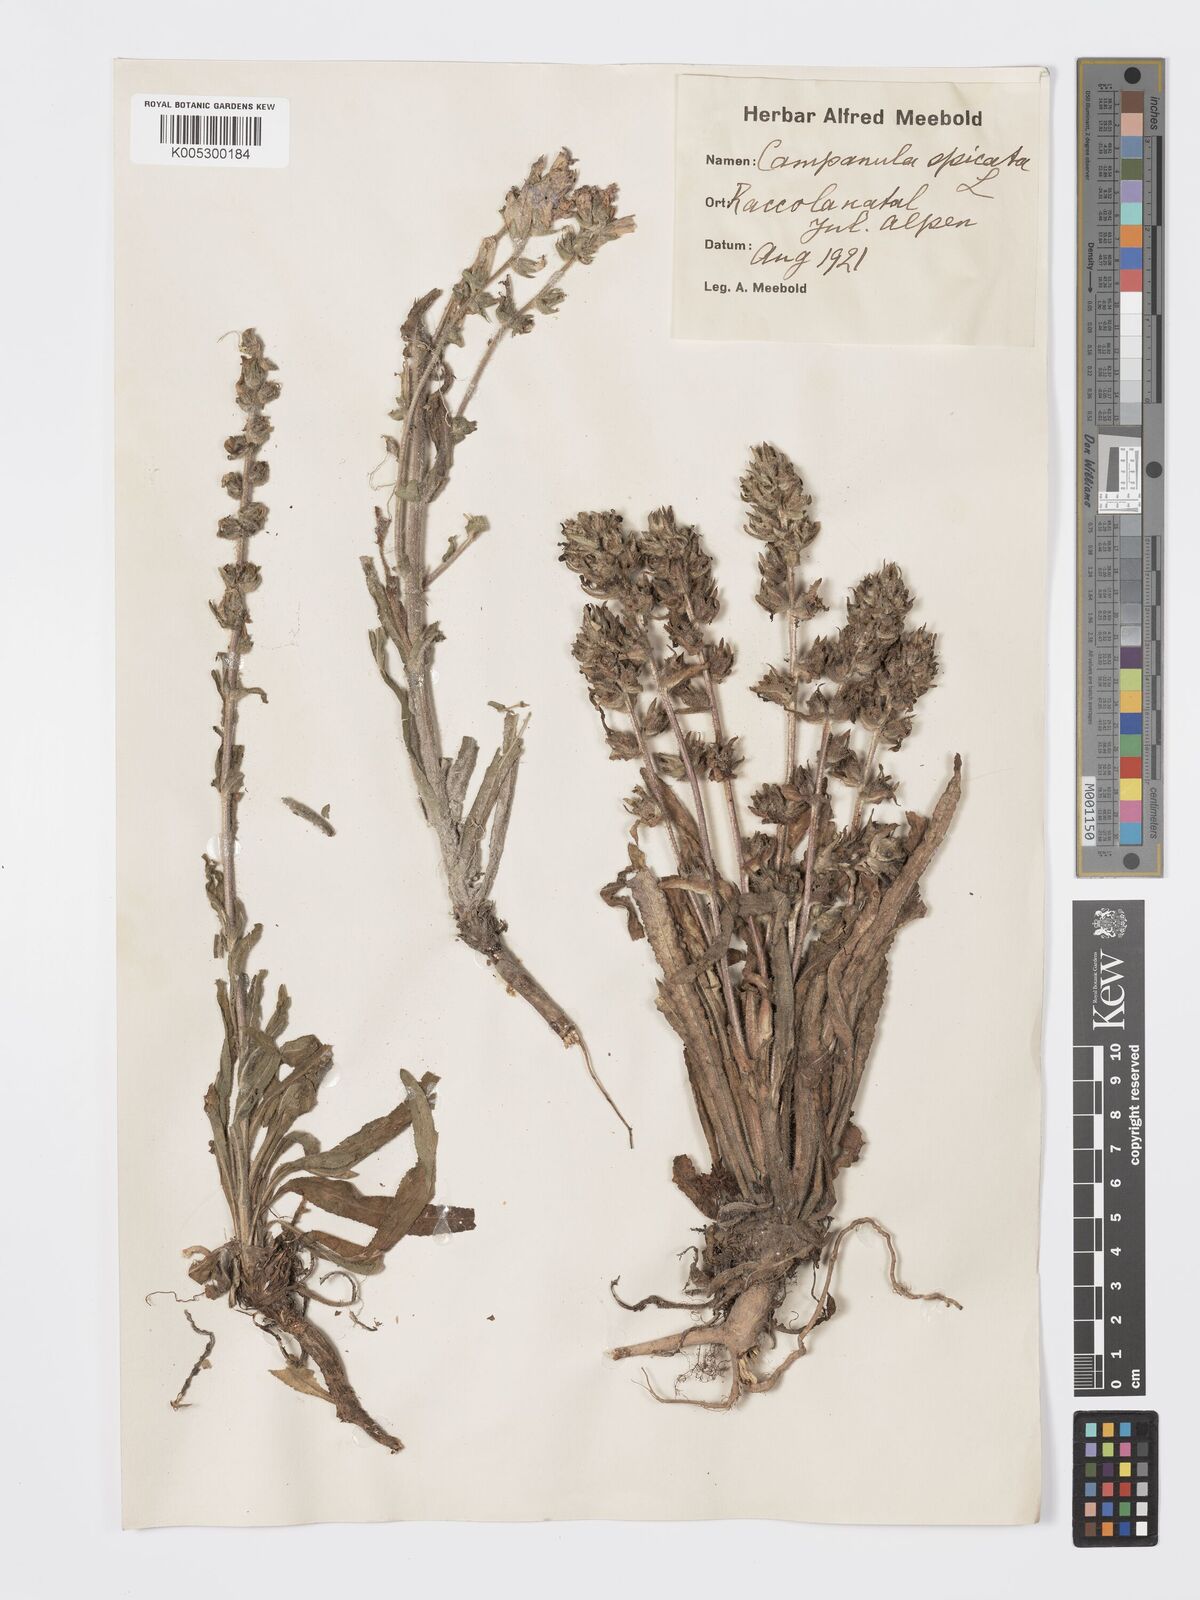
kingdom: Plantae
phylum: Tracheophyta
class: Magnoliopsida
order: Asterales
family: Campanulaceae
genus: Campanula
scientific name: Campanula spicata
